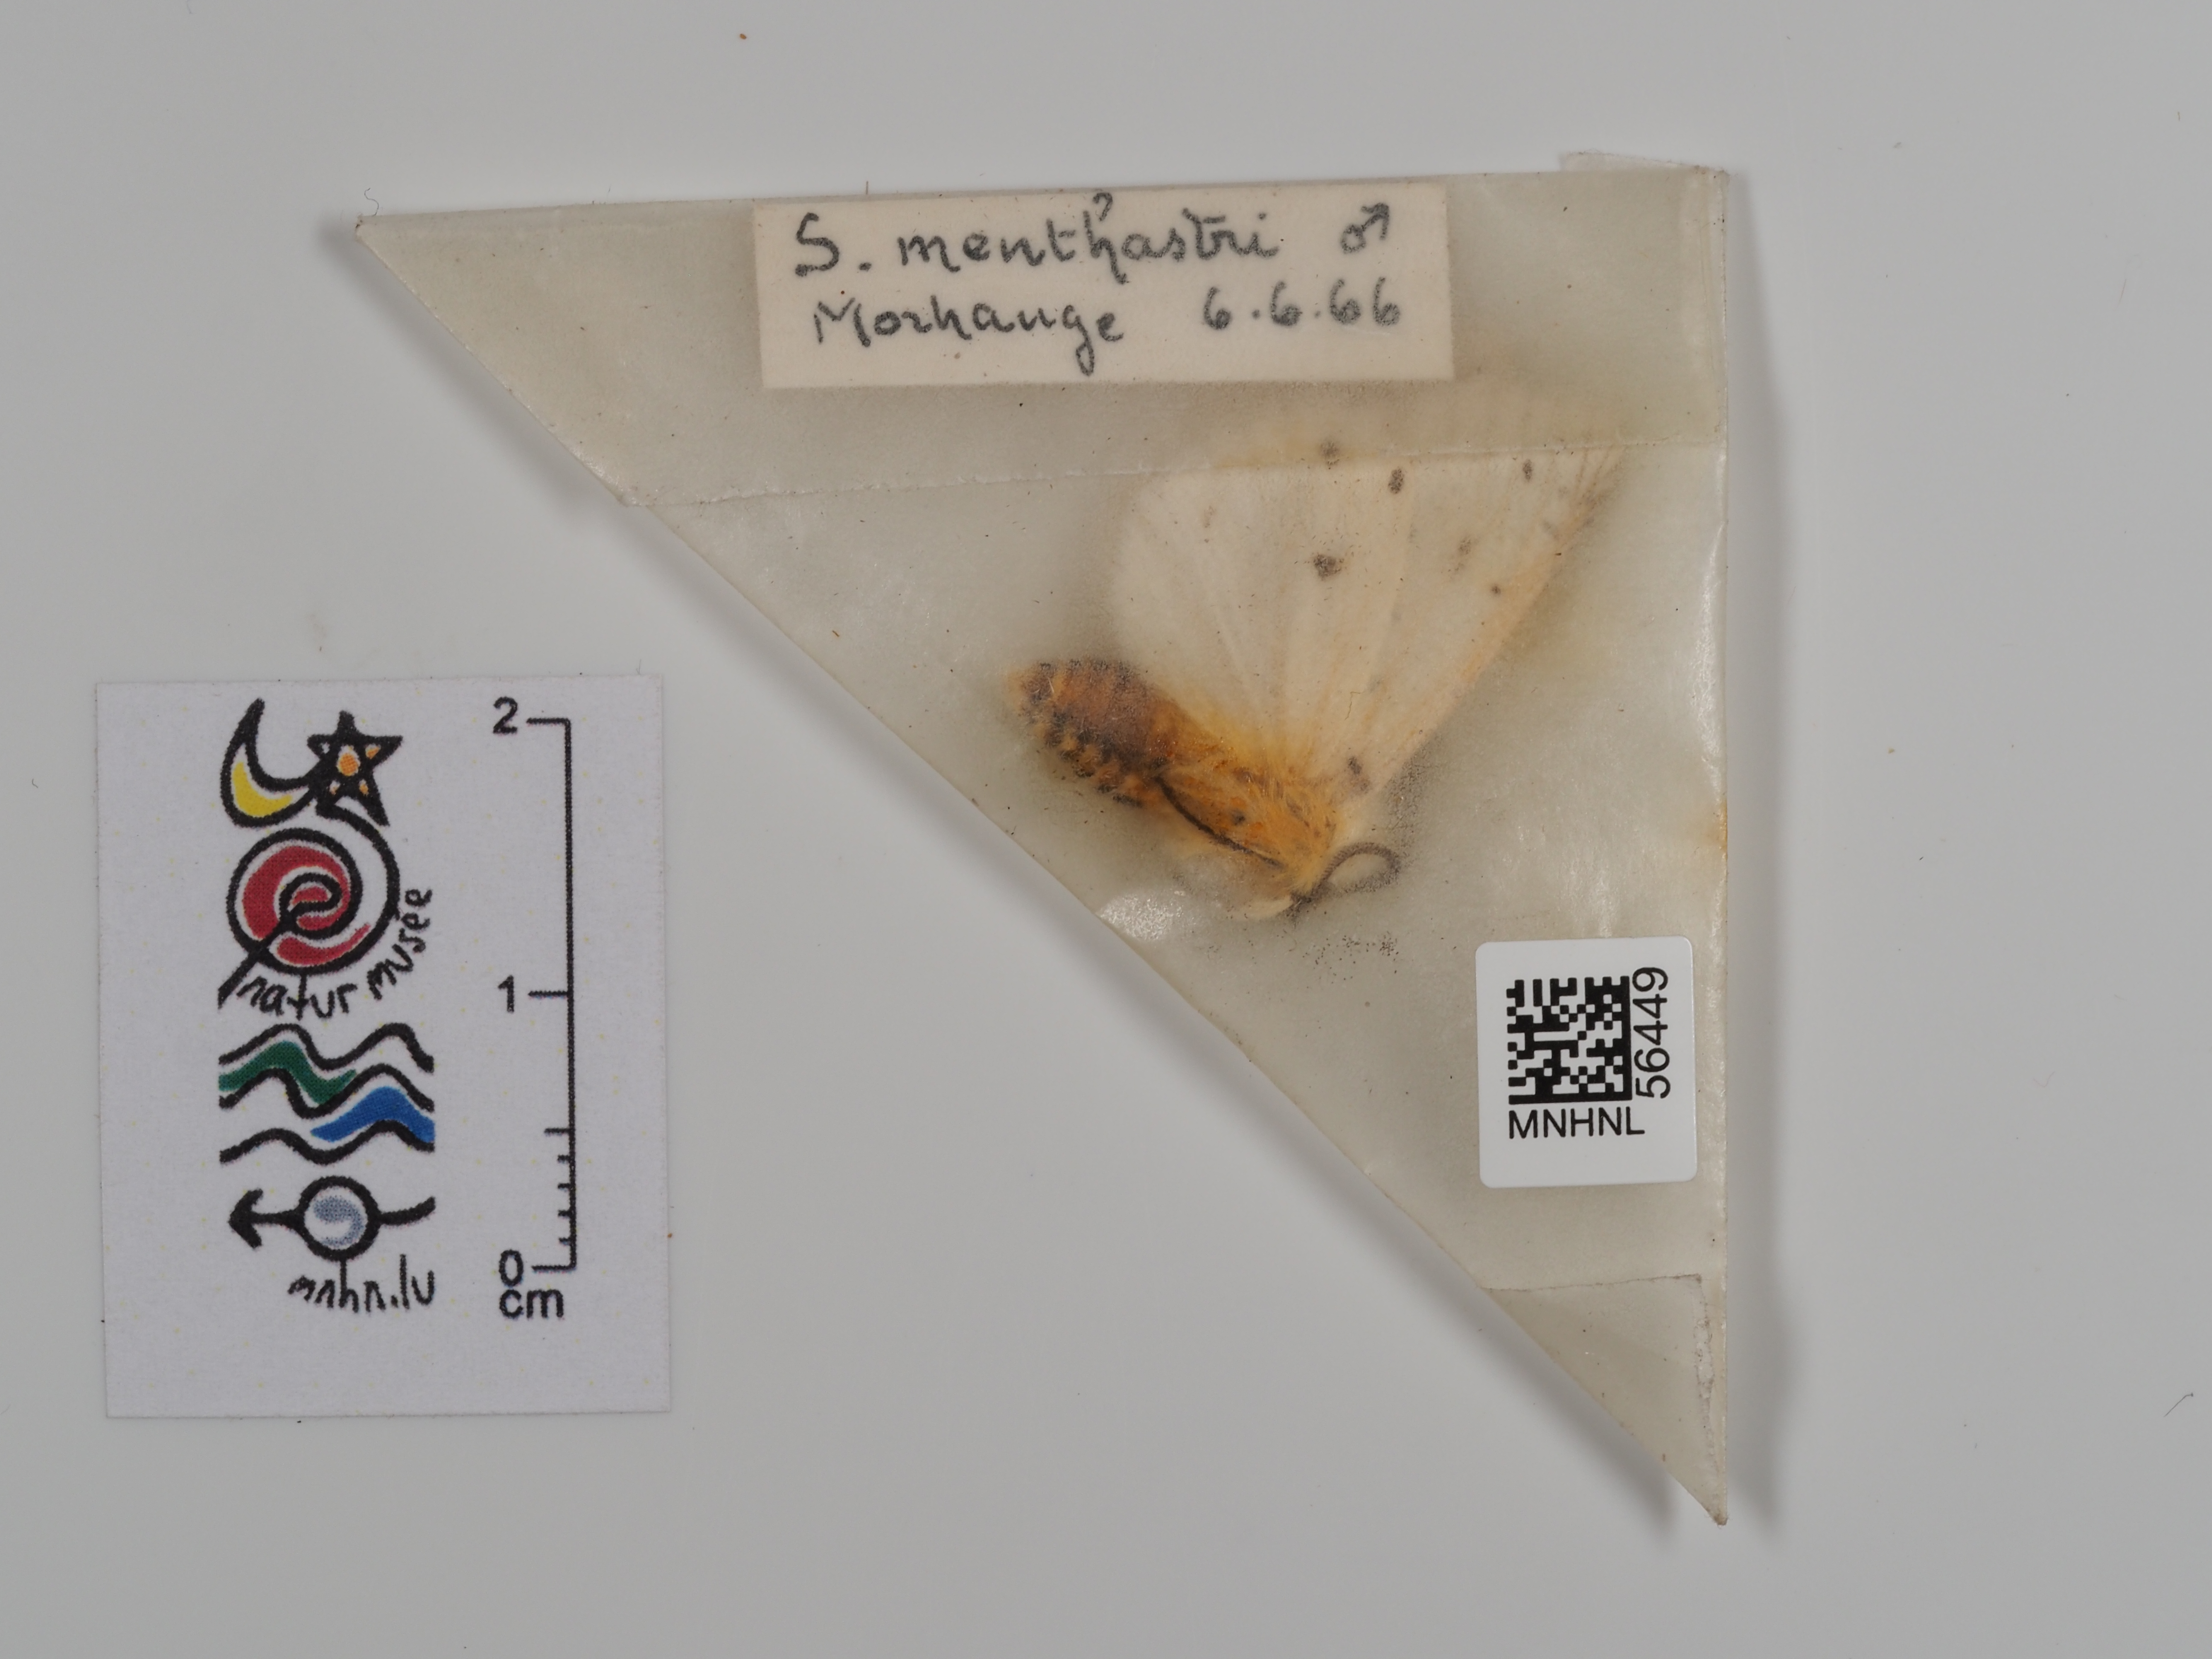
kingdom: Animalia
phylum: Arthropoda
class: Insecta
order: Lepidoptera
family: Erebidae
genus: Spilosoma
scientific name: Spilosoma lubricipeda
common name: White ermine
